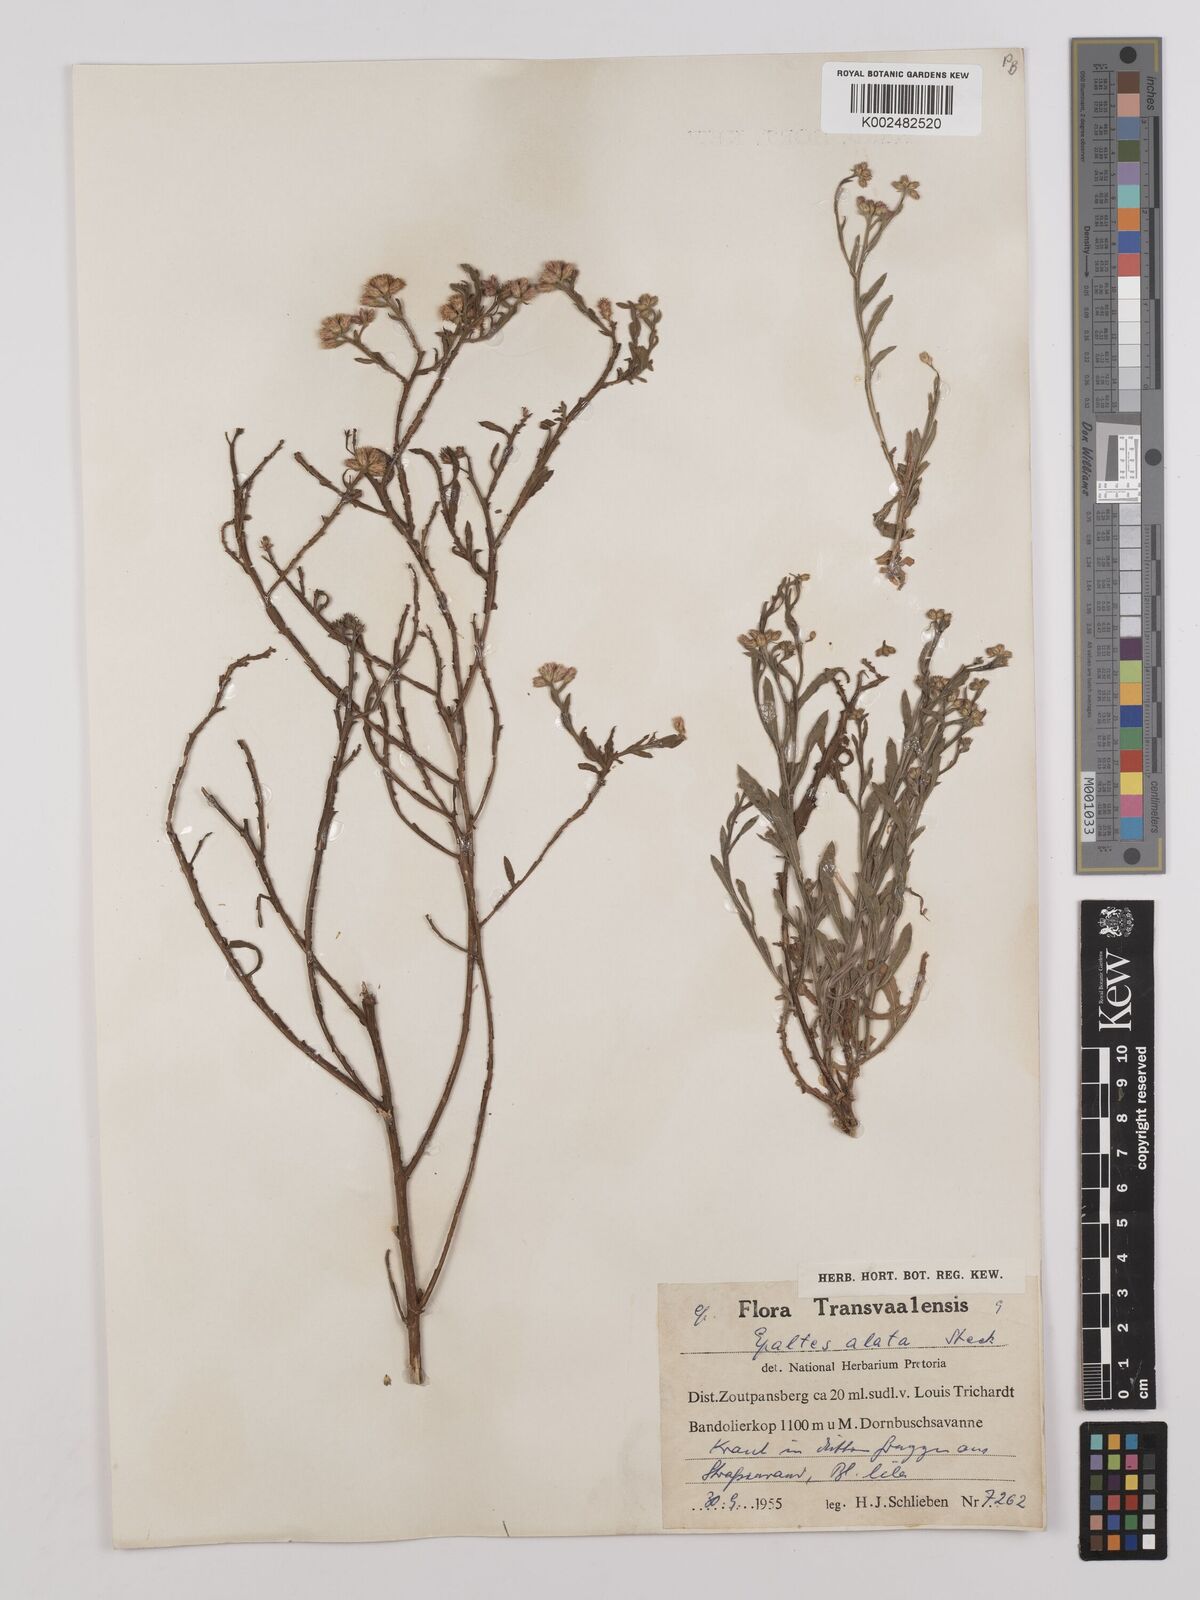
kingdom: Plantae
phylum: Tracheophyta
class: Magnoliopsida
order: Asterales
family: Asteraceae
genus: Litogyne
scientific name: Litogyne gariepina
